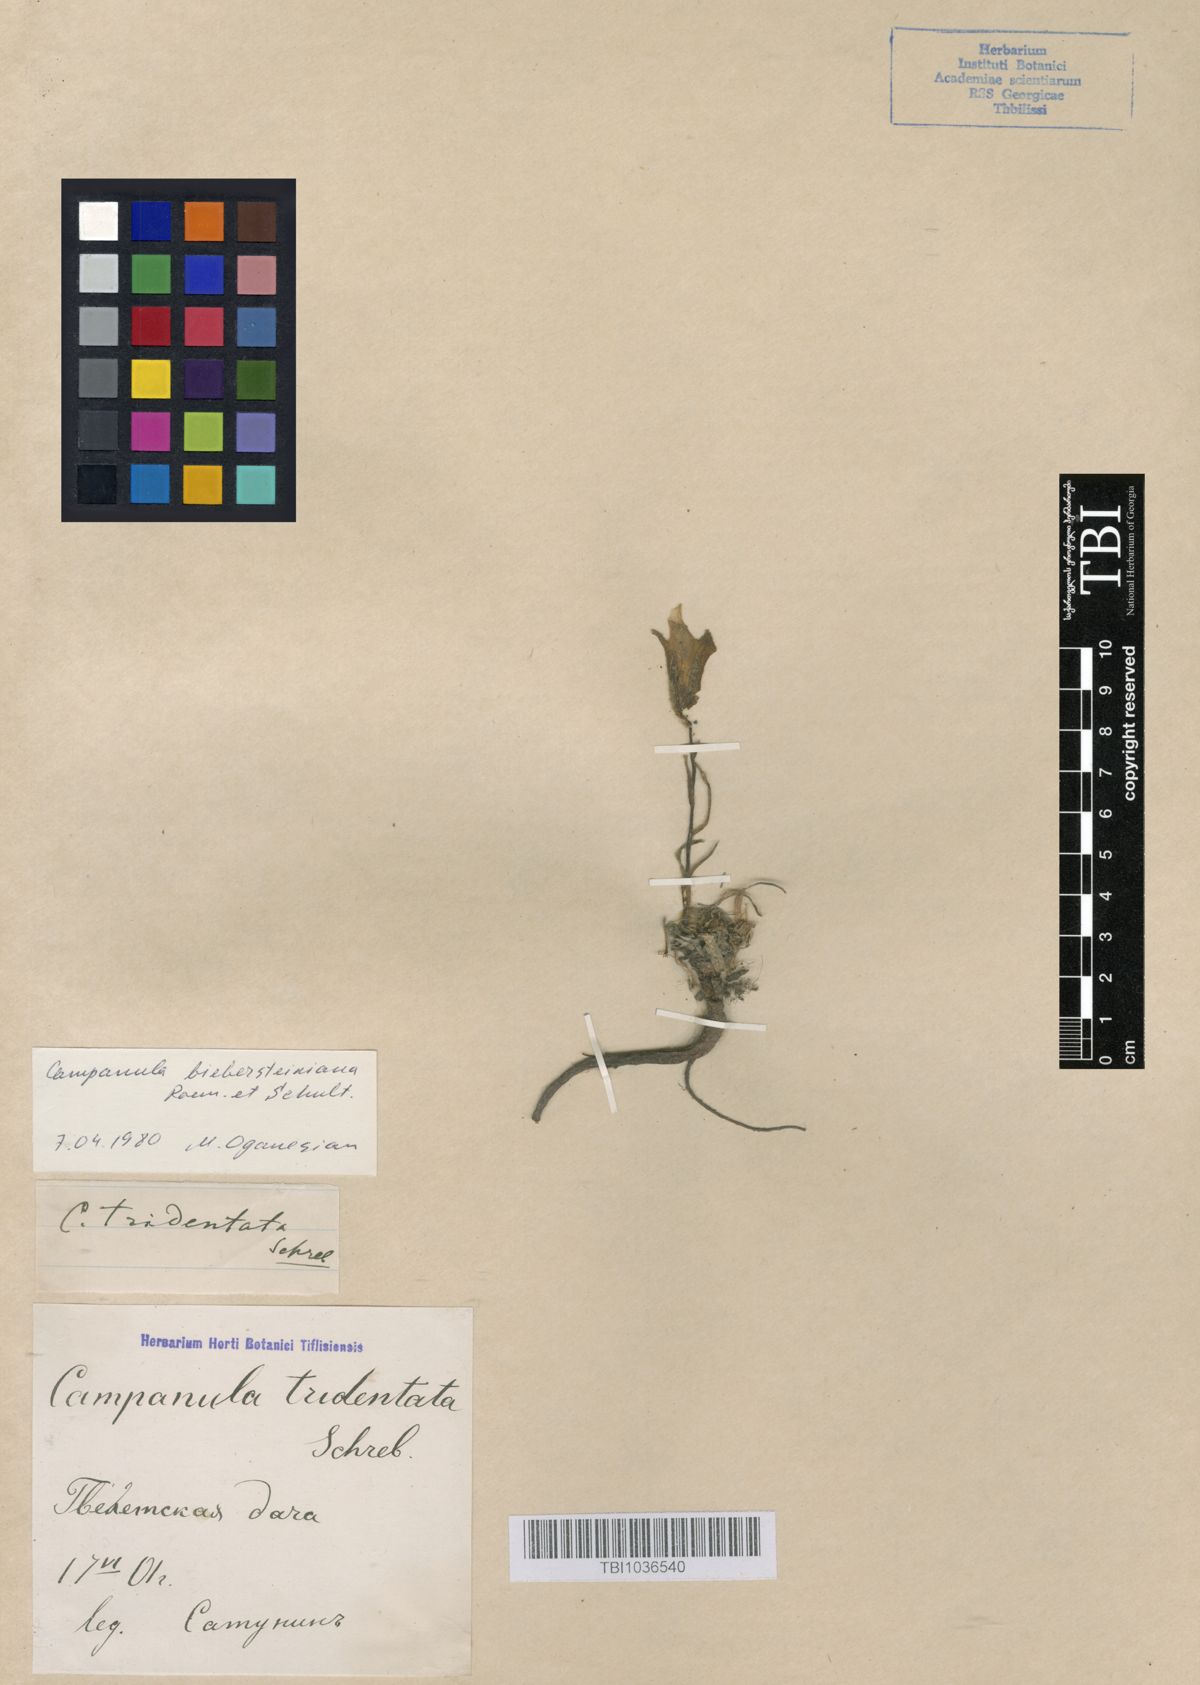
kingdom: Plantae
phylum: Tracheophyta
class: Magnoliopsida
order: Asterales
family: Campanulaceae
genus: Campanula
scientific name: Campanula tridentata
